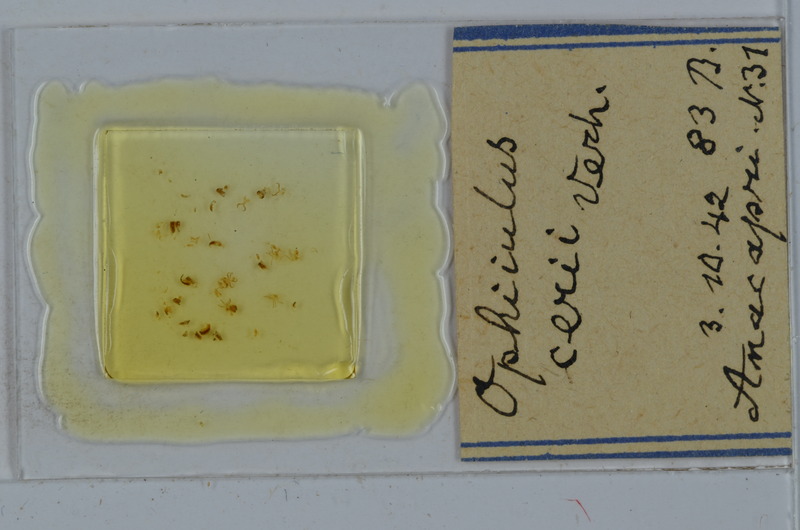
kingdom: Animalia
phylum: Arthropoda
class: Diplopoda
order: Julida
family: Julidae
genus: Ophyiulus
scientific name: Ophyiulus cerii
